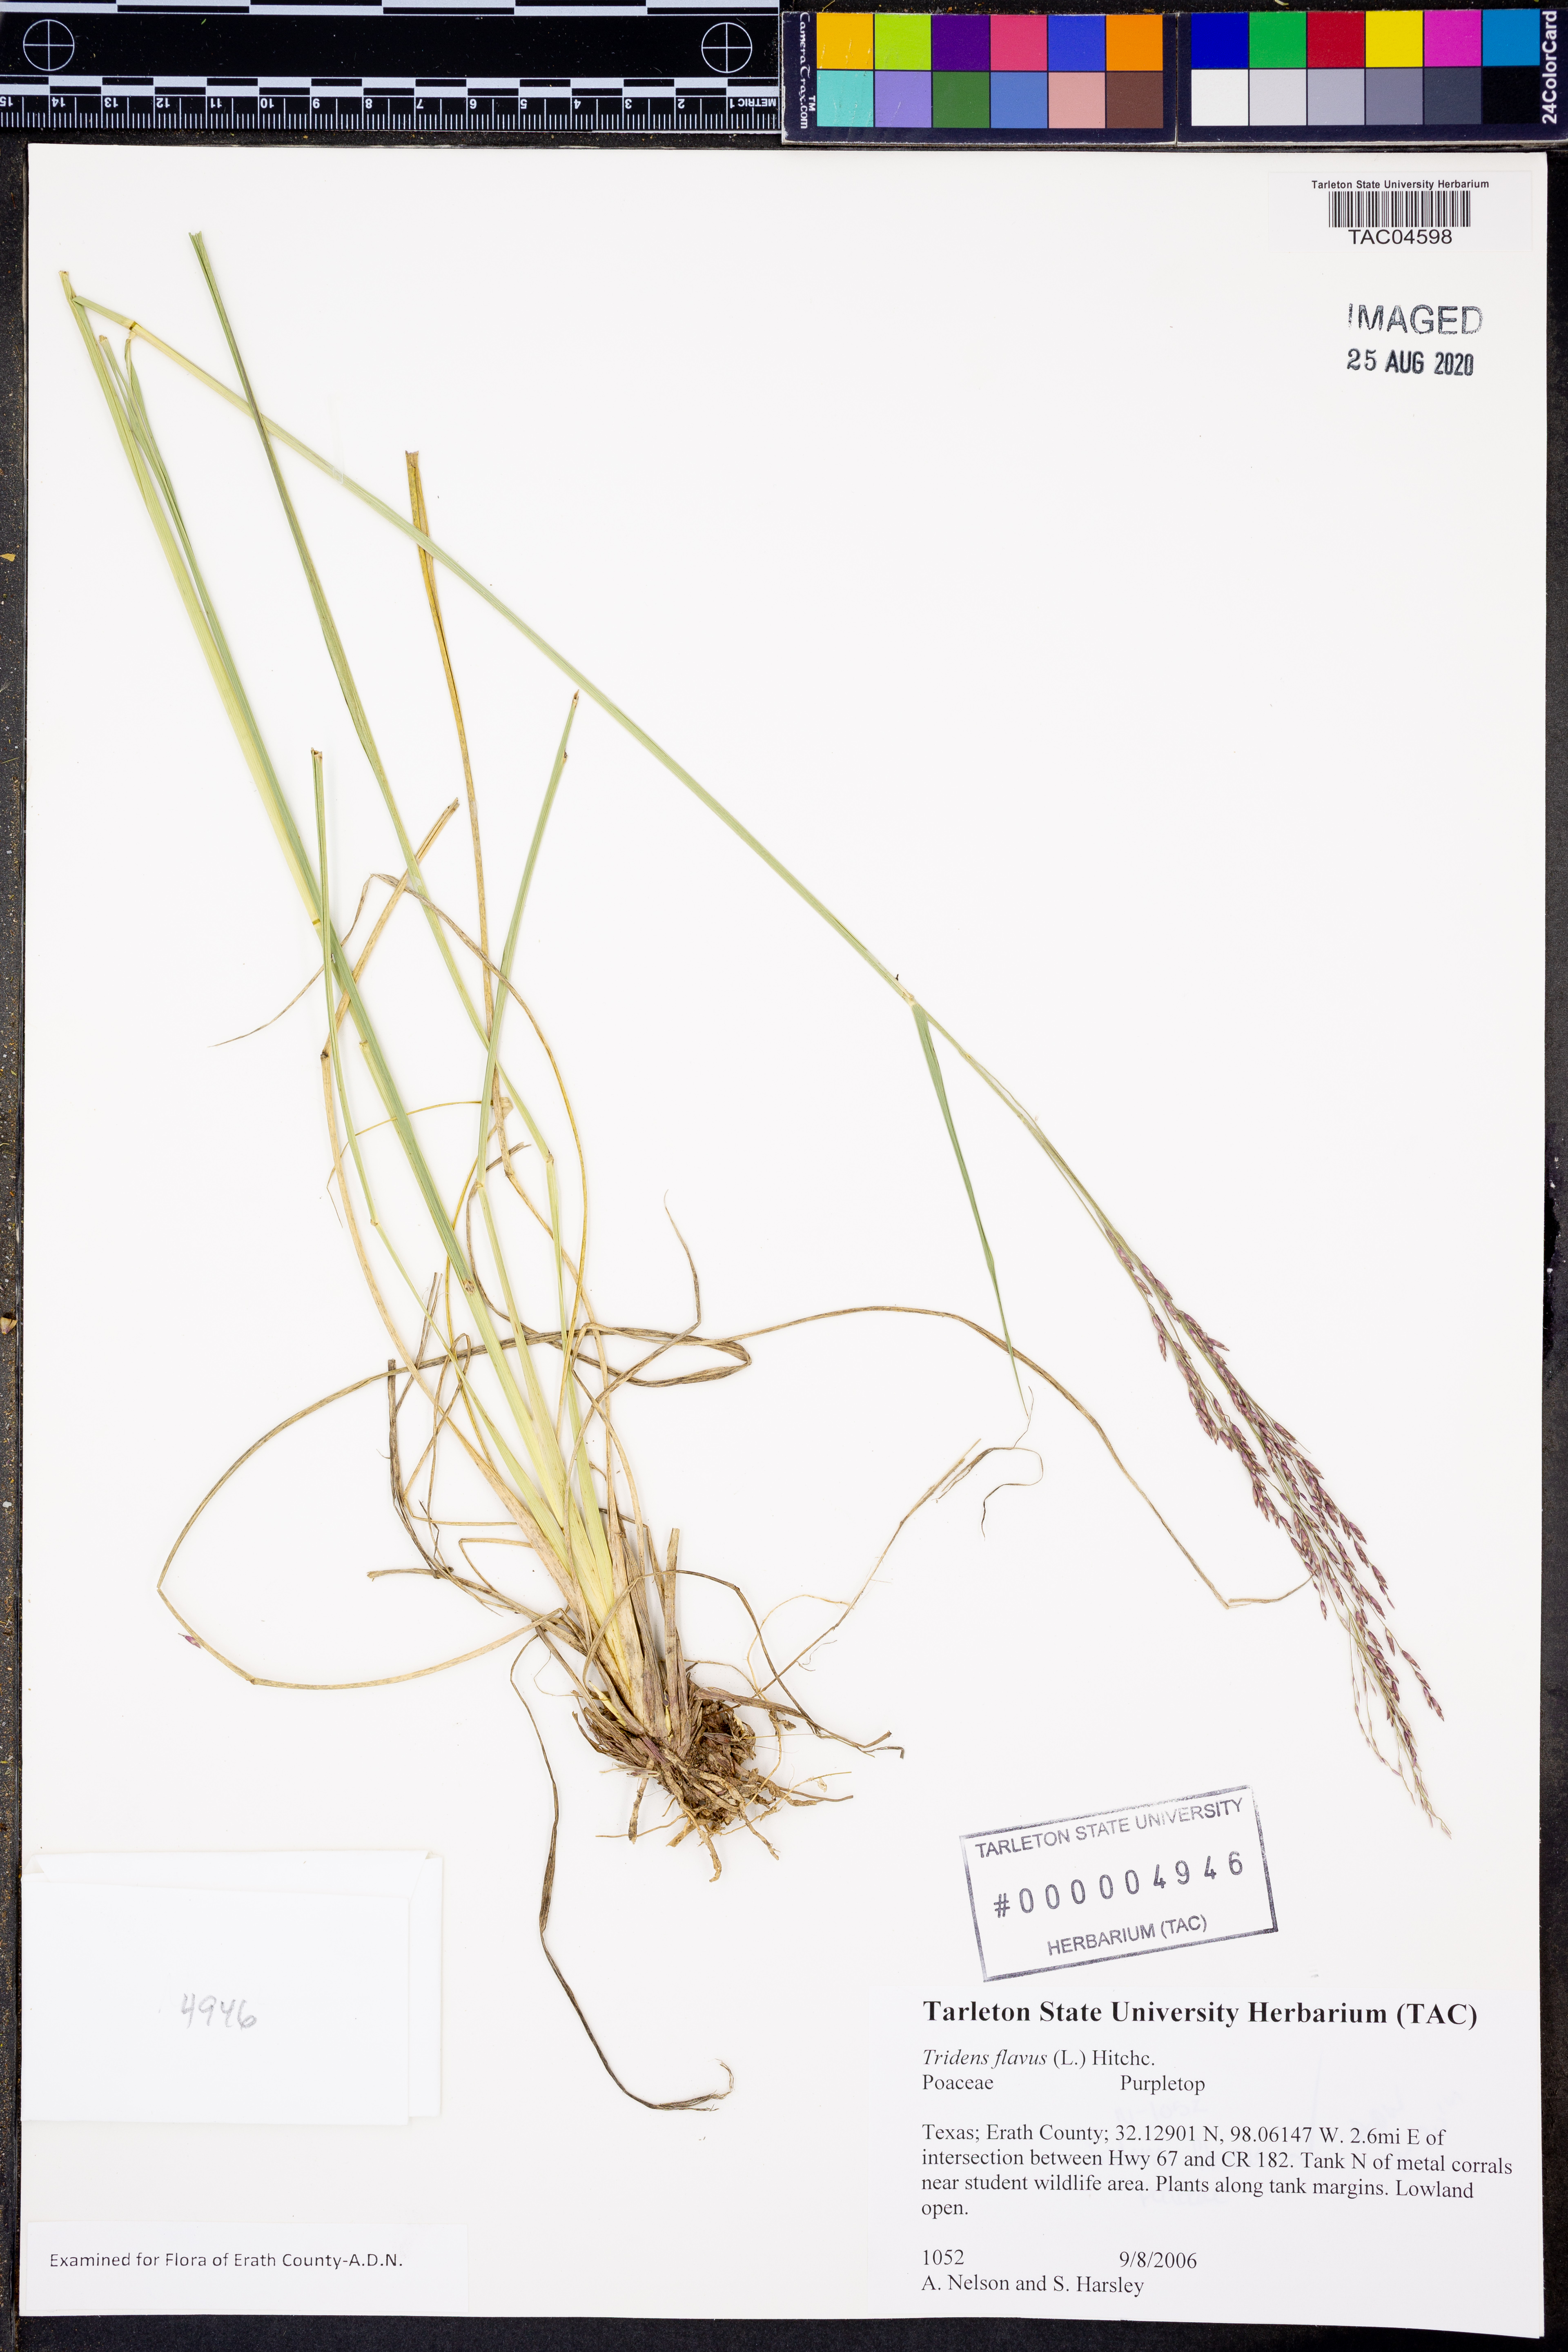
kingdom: Plantae
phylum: Tracheophyta
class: Liliopsida
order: Poales
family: Poaceae
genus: Tridens
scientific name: Tridens flavus
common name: Purpletop
